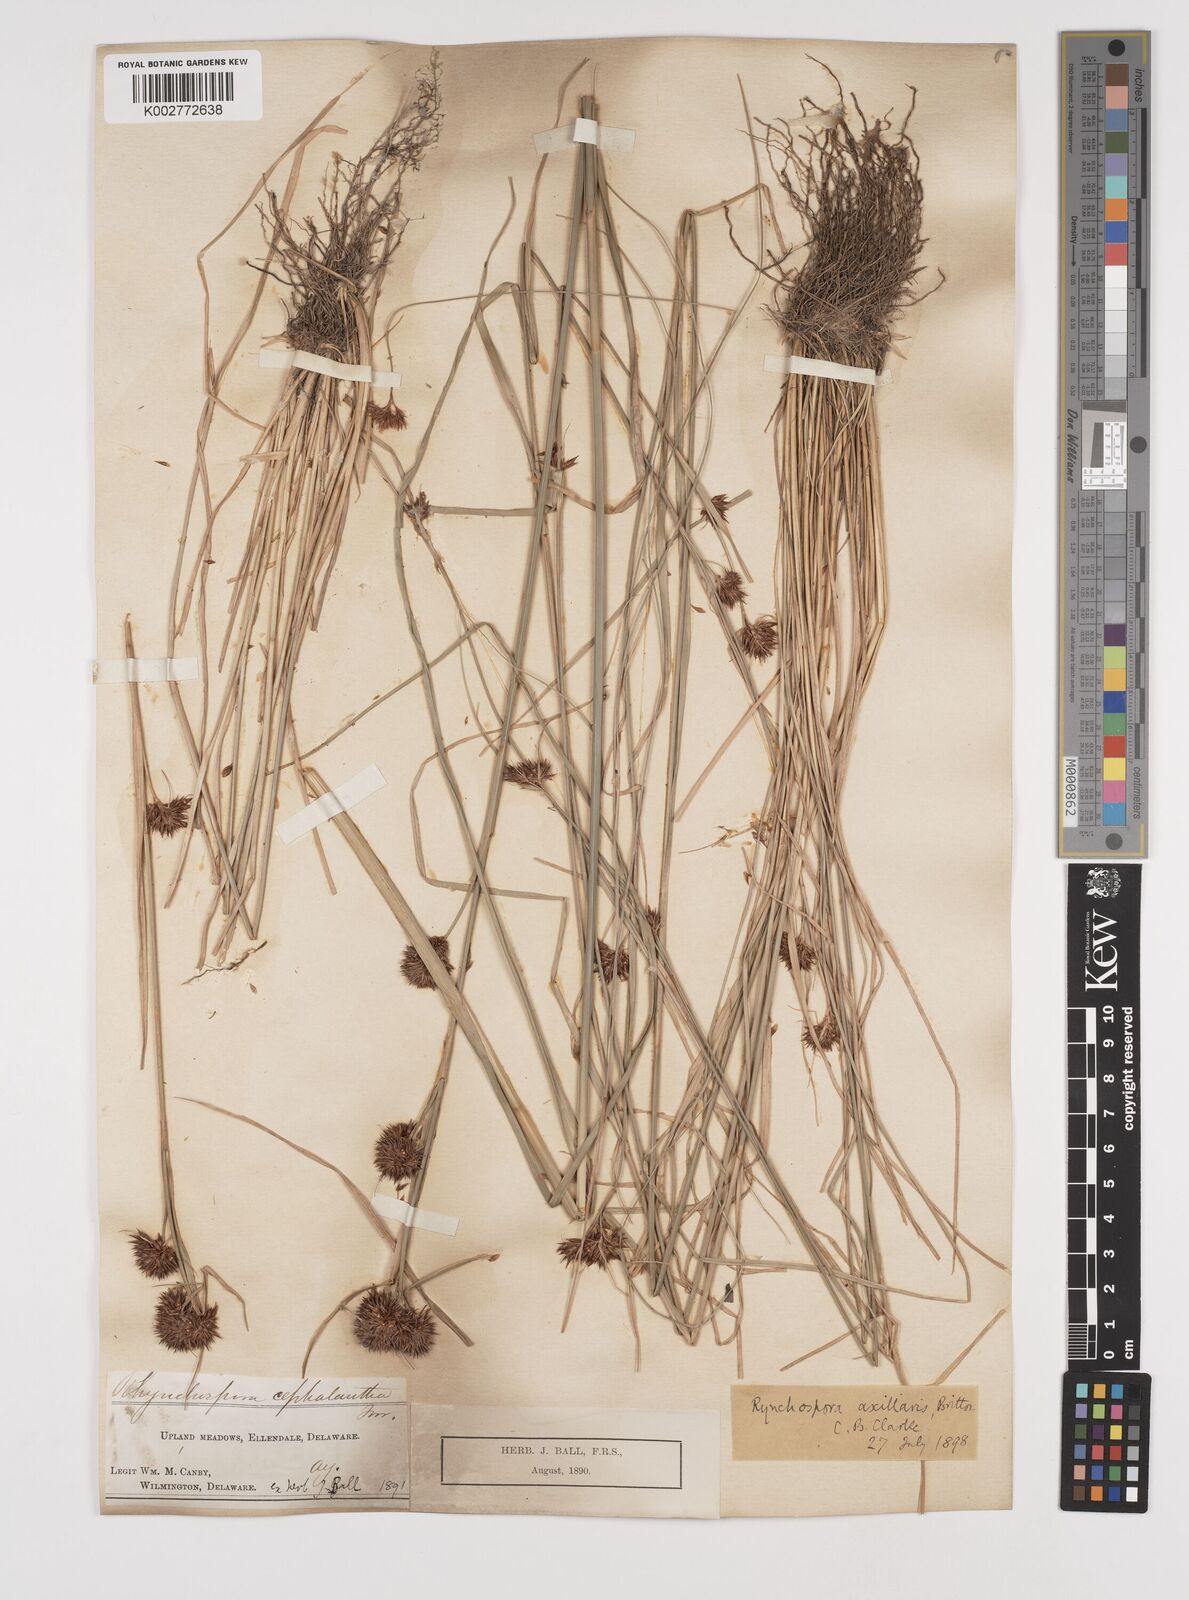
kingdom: Plantae
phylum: Tracheophyta
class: Liliopsida
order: Poales
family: Cyperaceae
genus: Rhynchospora
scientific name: Rhynchospora glomerata
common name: Cluster beak sedge
